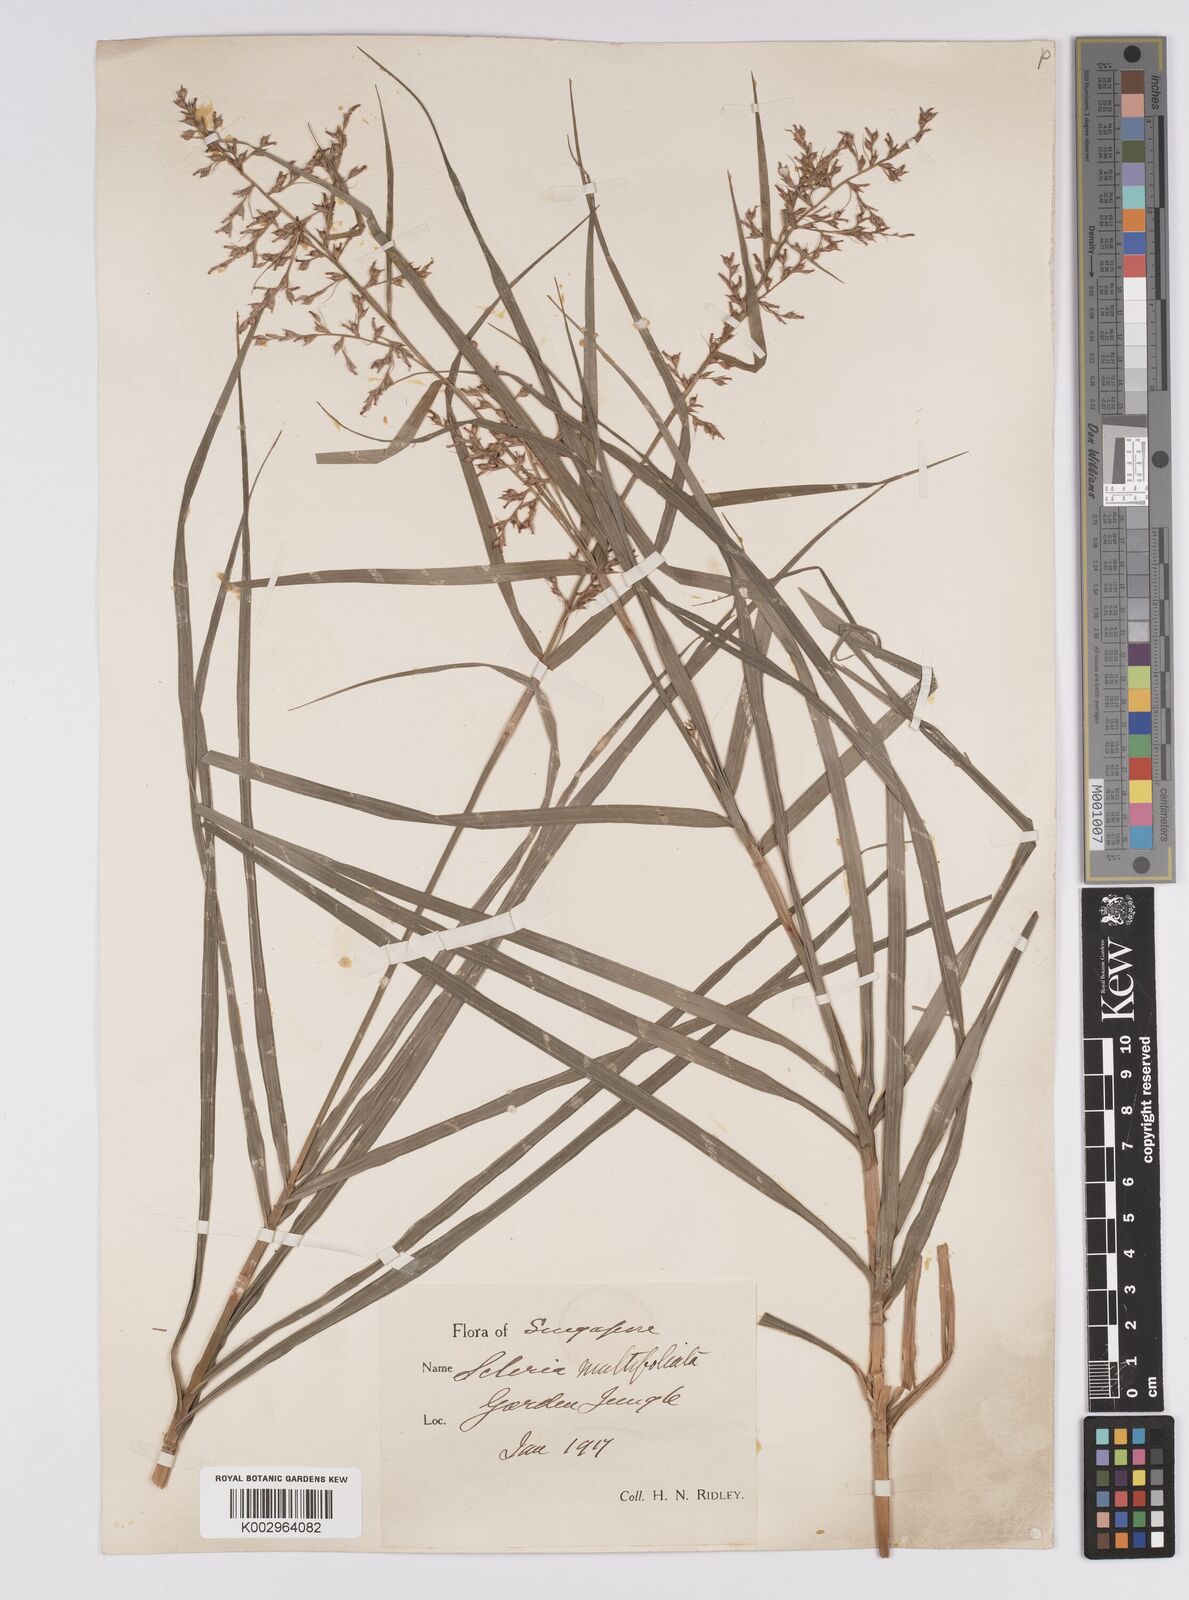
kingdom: Plantae
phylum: Tracheophyta
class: Liliopsida
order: Poales
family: Cyperaceae
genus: Scleria
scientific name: Scleria purpurascens
